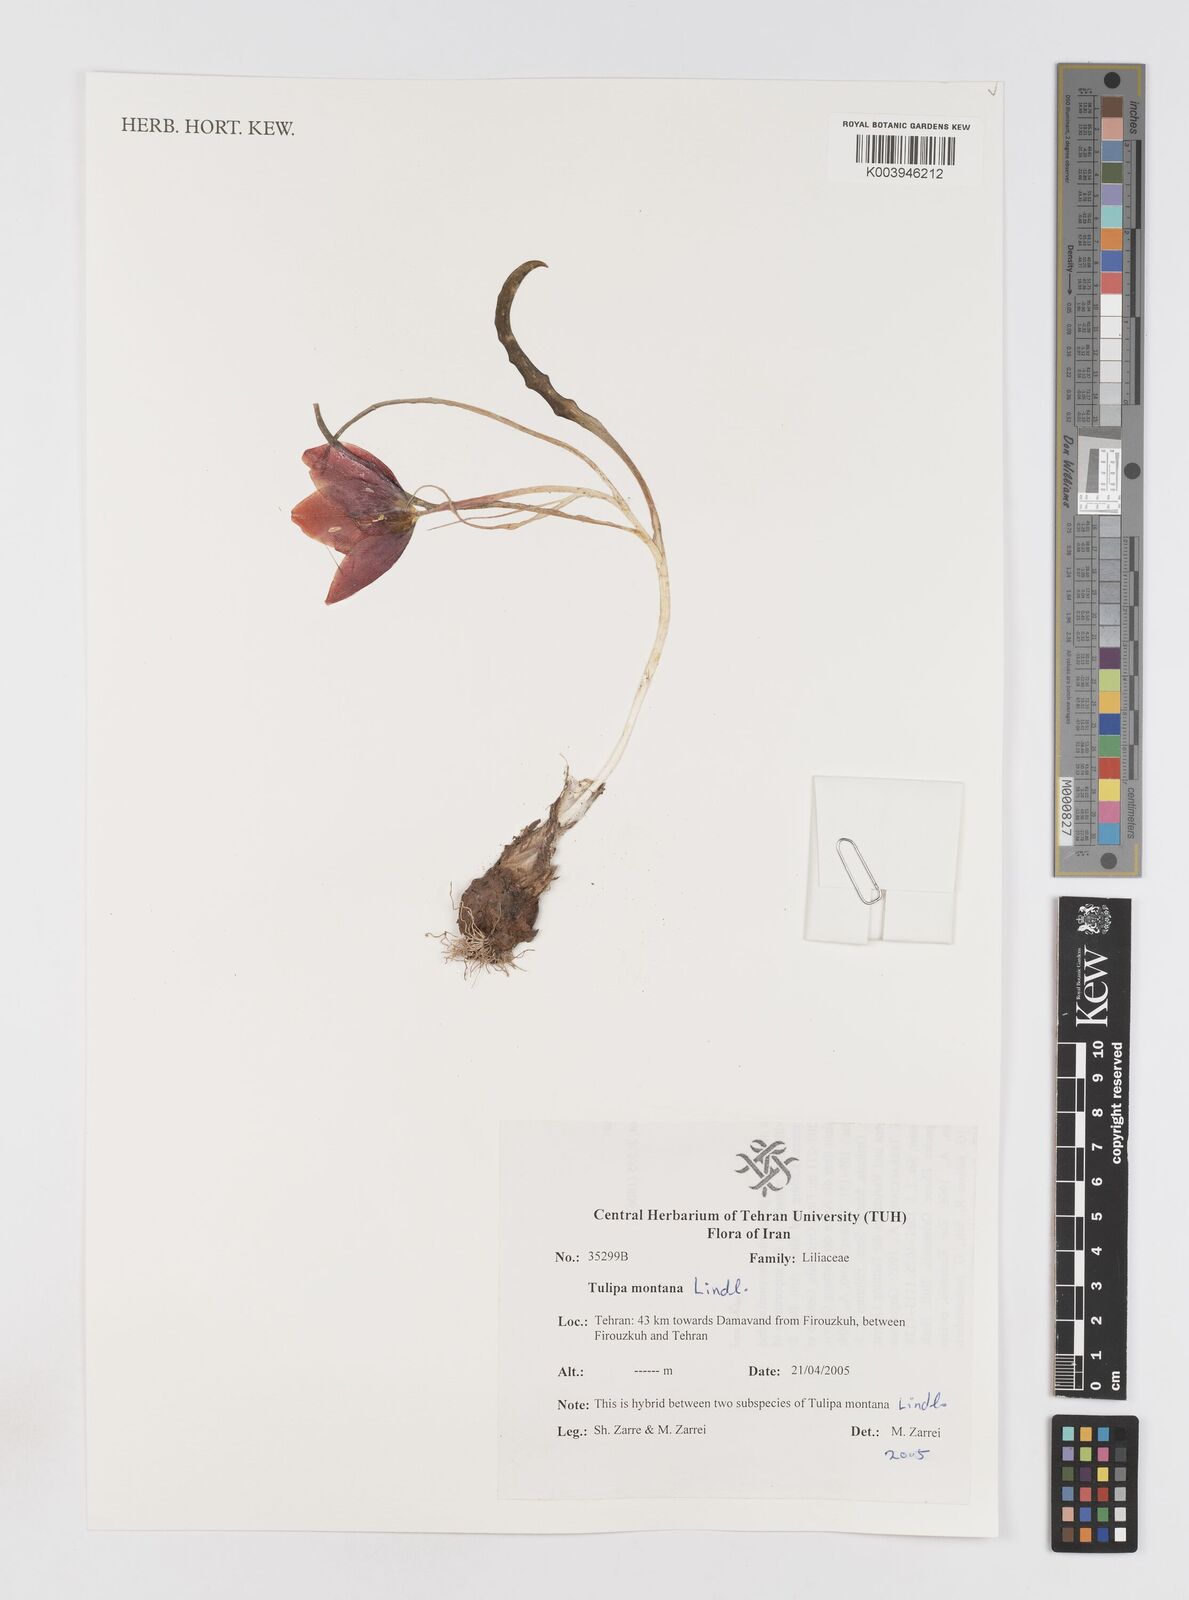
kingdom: Plantae
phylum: Tracheophyta
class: Liliopsida
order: Liliales
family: Liliaceae
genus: Tulipa
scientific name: Tulipa montana
